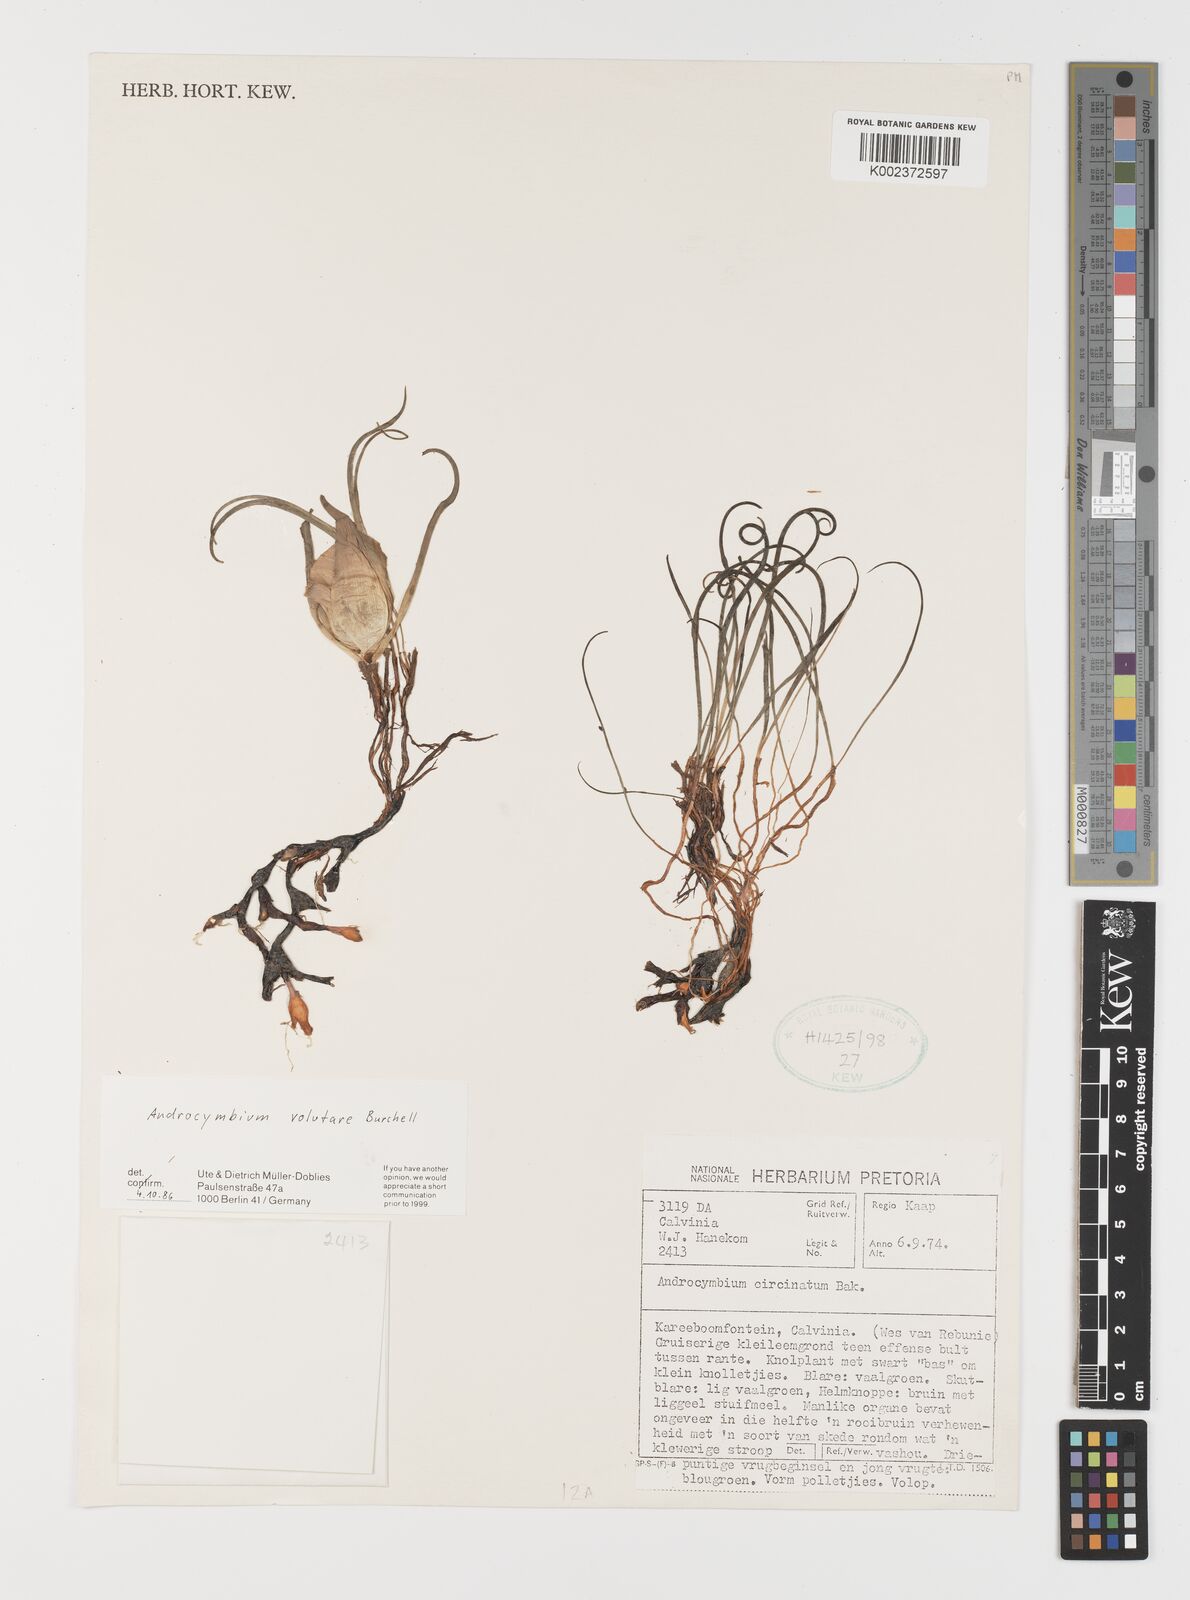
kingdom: Plantae
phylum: Tracheophyta
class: Liliopsida
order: Liliales
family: Colchicaceae
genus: Colchicum
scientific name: Colchicum volutare
